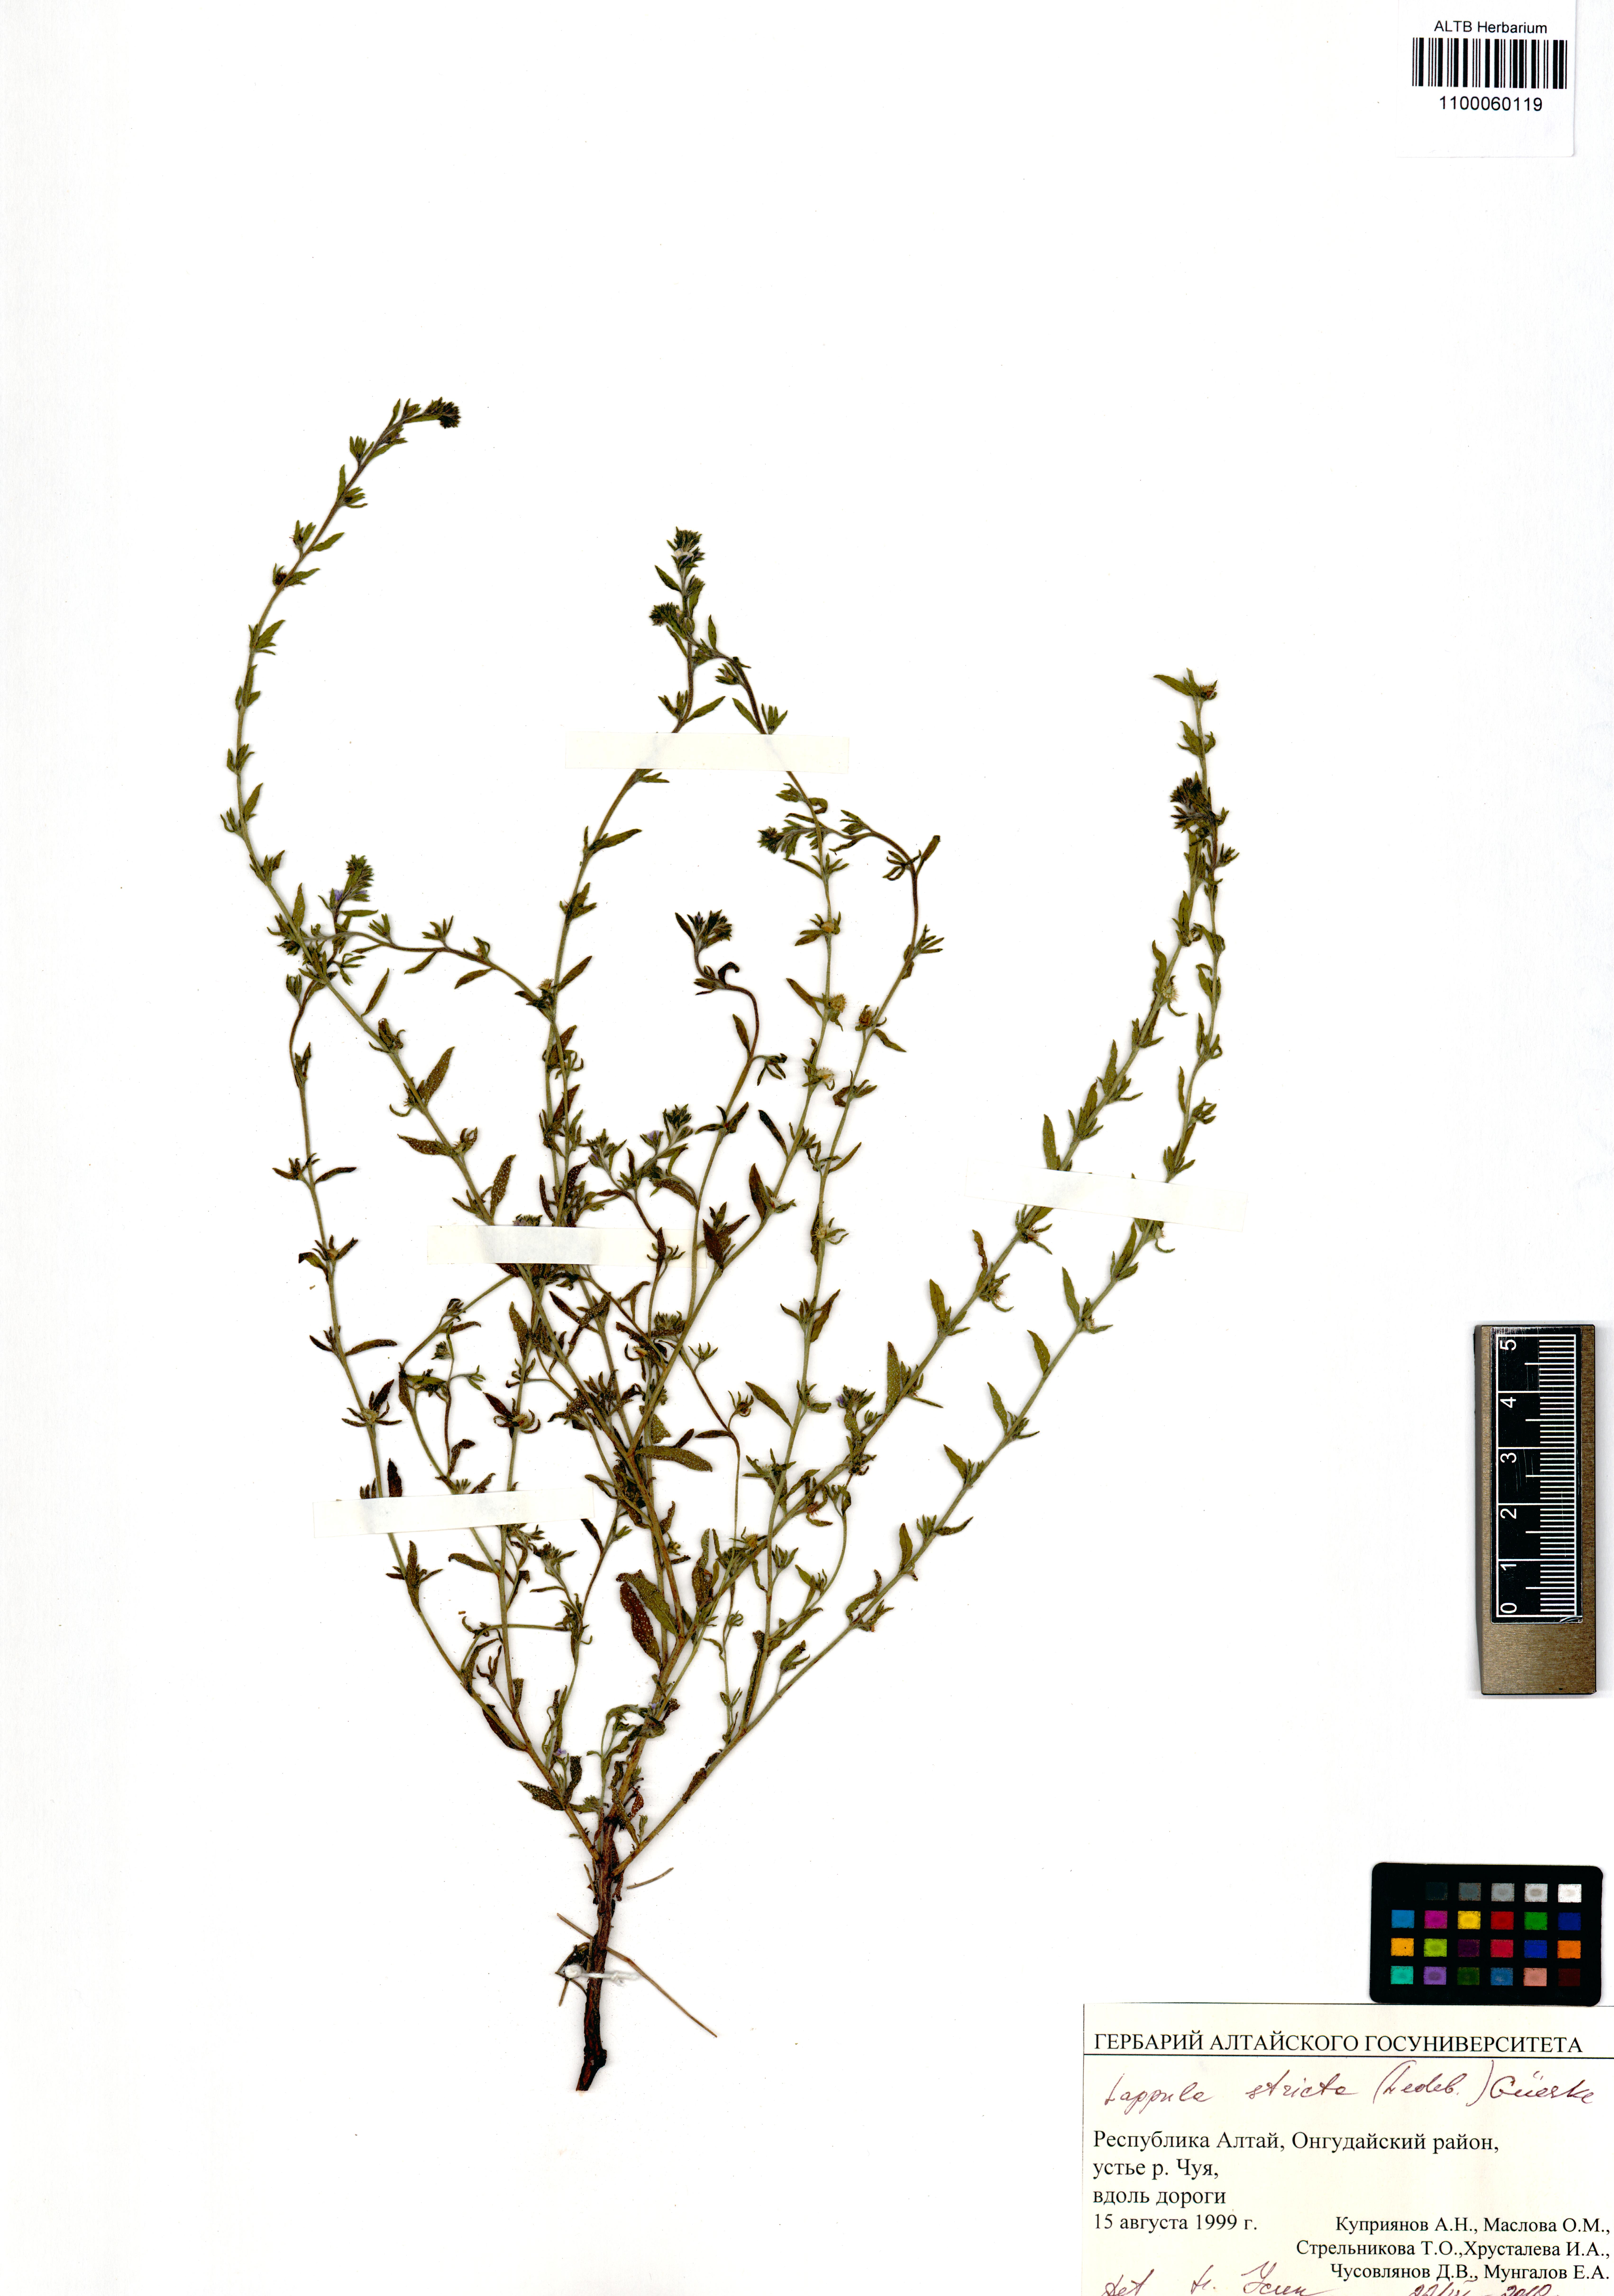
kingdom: Plantae
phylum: Tracheophyta
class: Magnoliopsida
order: Boraginales
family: Boraginaceae
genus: Lappula
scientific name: Lappula stricta
